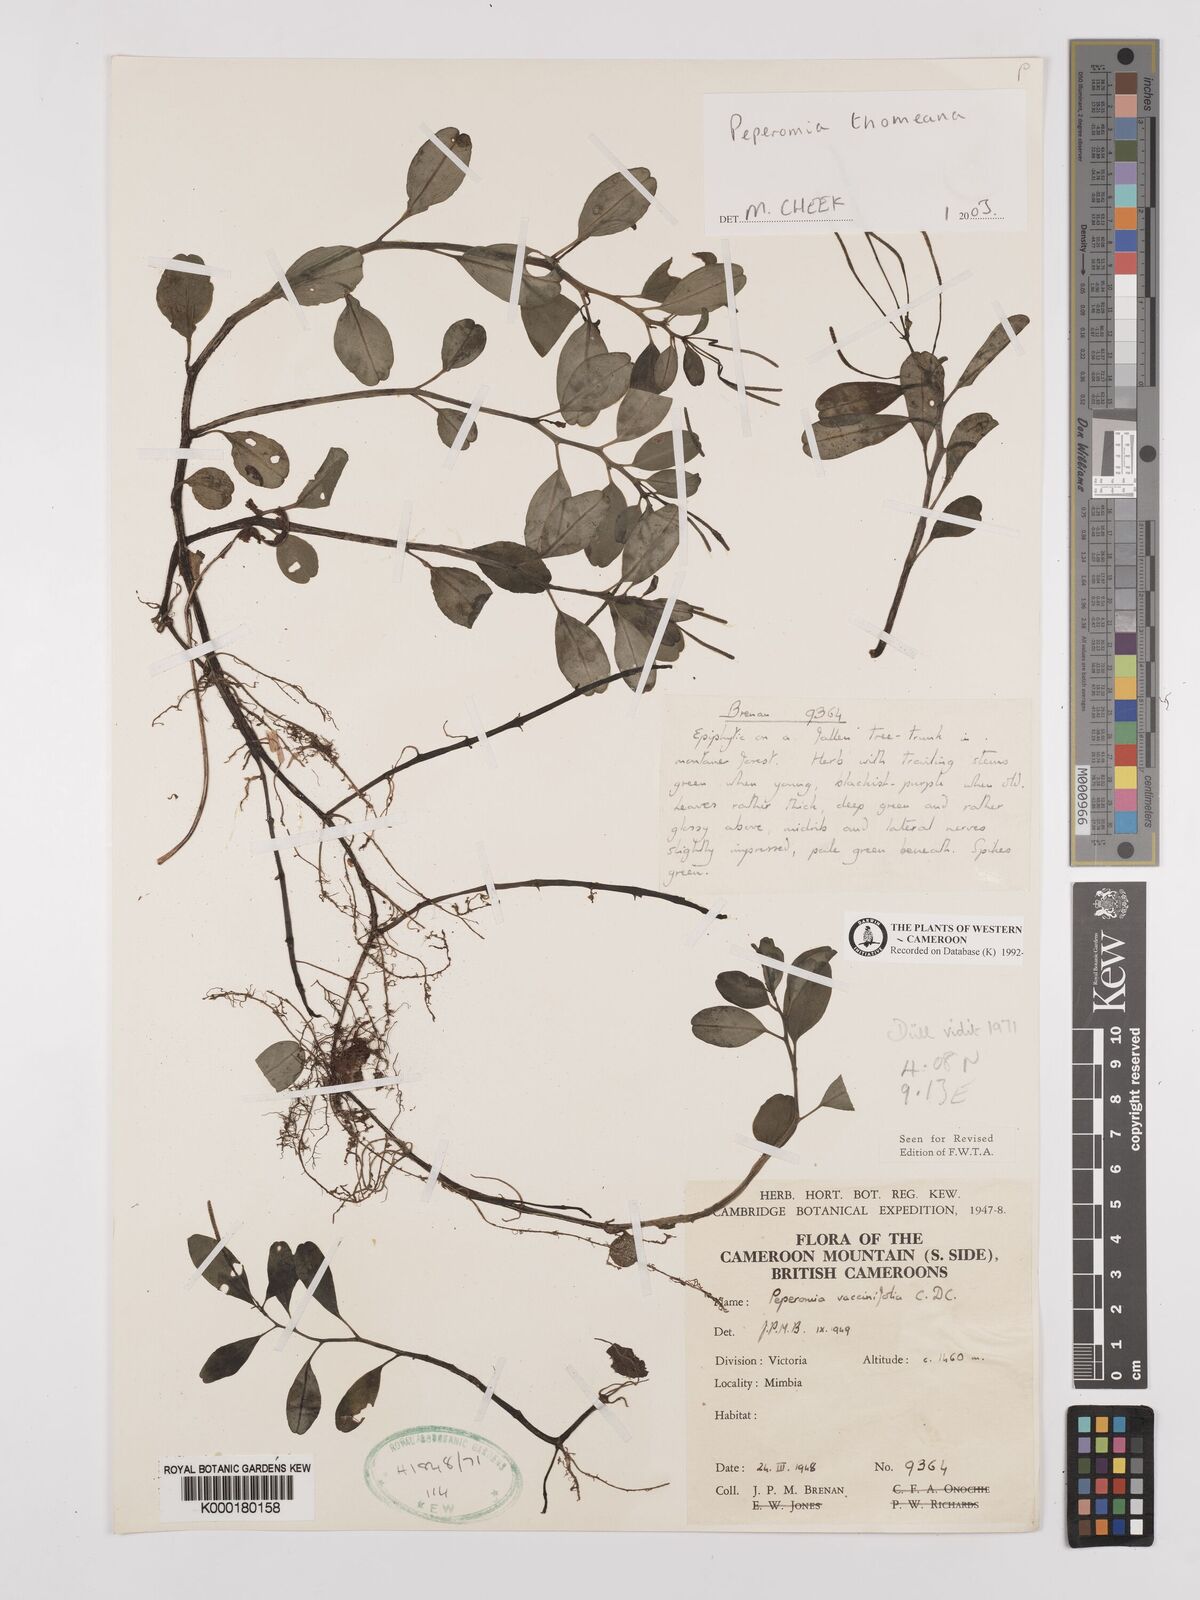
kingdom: Plantae
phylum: Tracheophyta
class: Magnoliopsida
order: Piperales
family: Piperaceae
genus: Peperomia
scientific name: Peperomia thomeana
